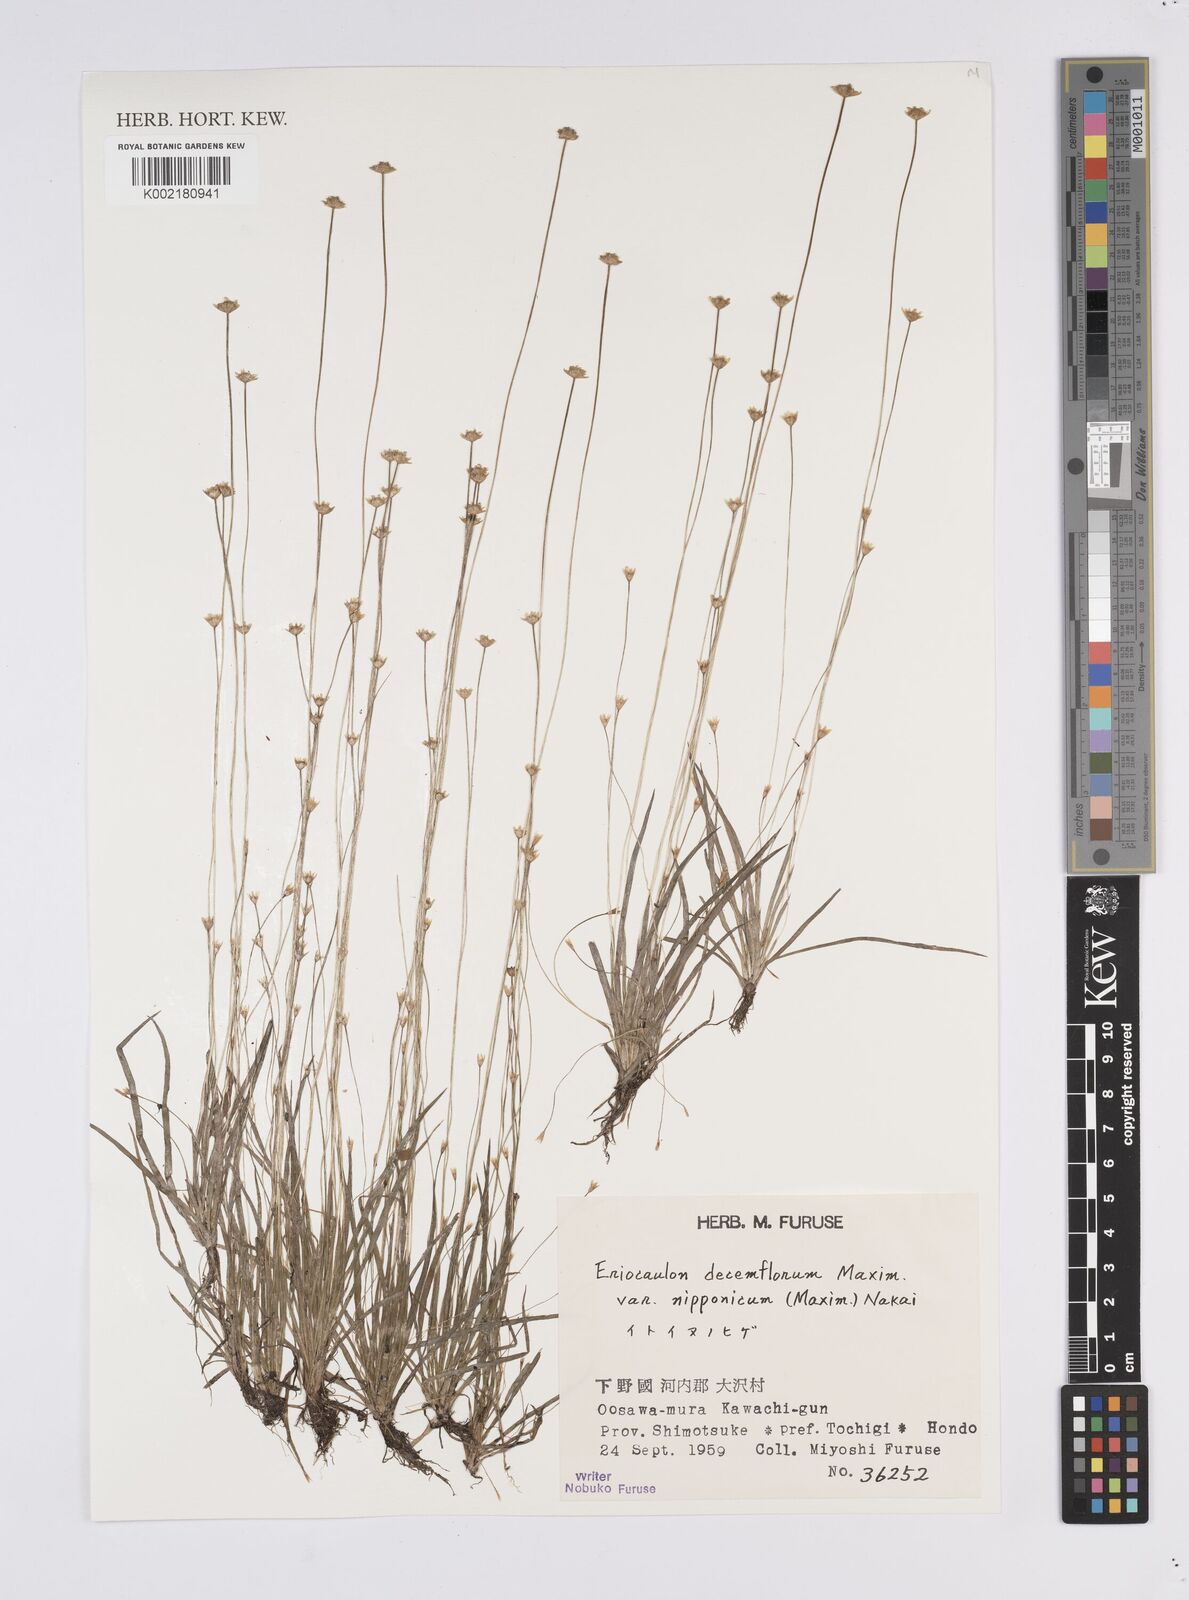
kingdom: Plantae
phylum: Tracheophyta
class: Liliopsida
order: Poales
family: Eriocaulaceae
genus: Eriocaulon
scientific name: Eriocaulon decemflorum
